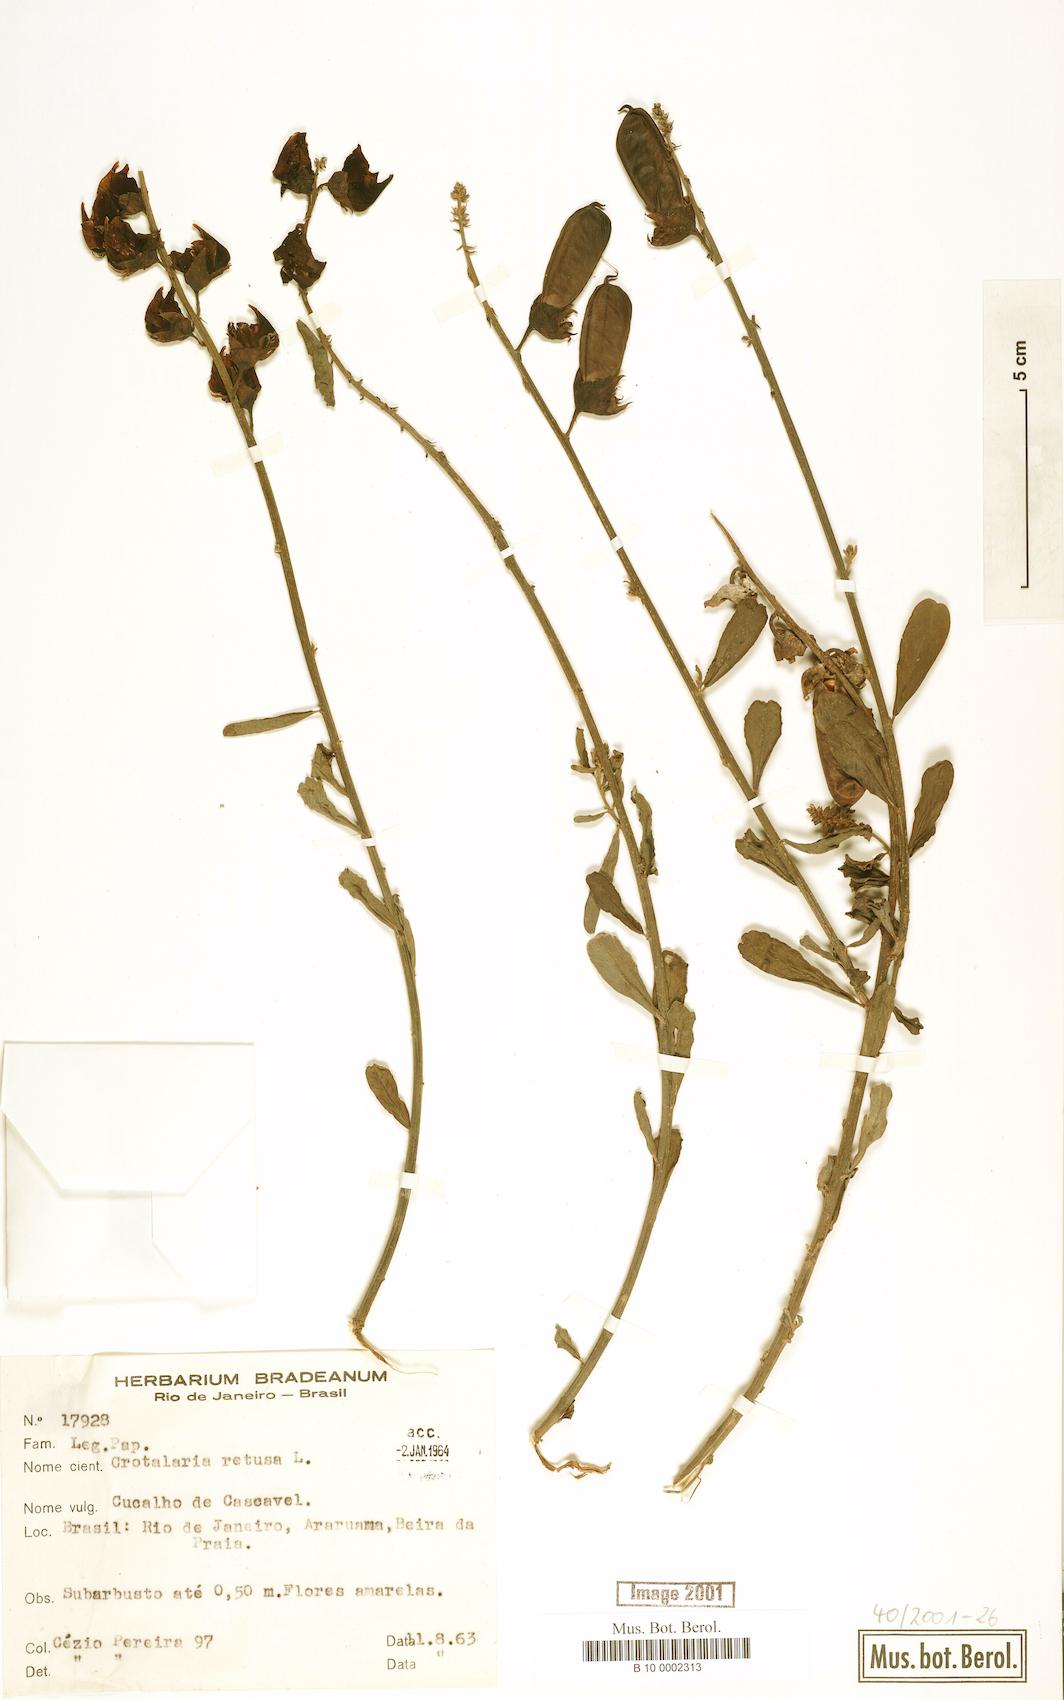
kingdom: Plantae
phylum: Tracheophyta
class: Magnoliopsida
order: Fabales
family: Fabaceae
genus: Crotalaria
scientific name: Crotalaria retusa
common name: Rattleweed
